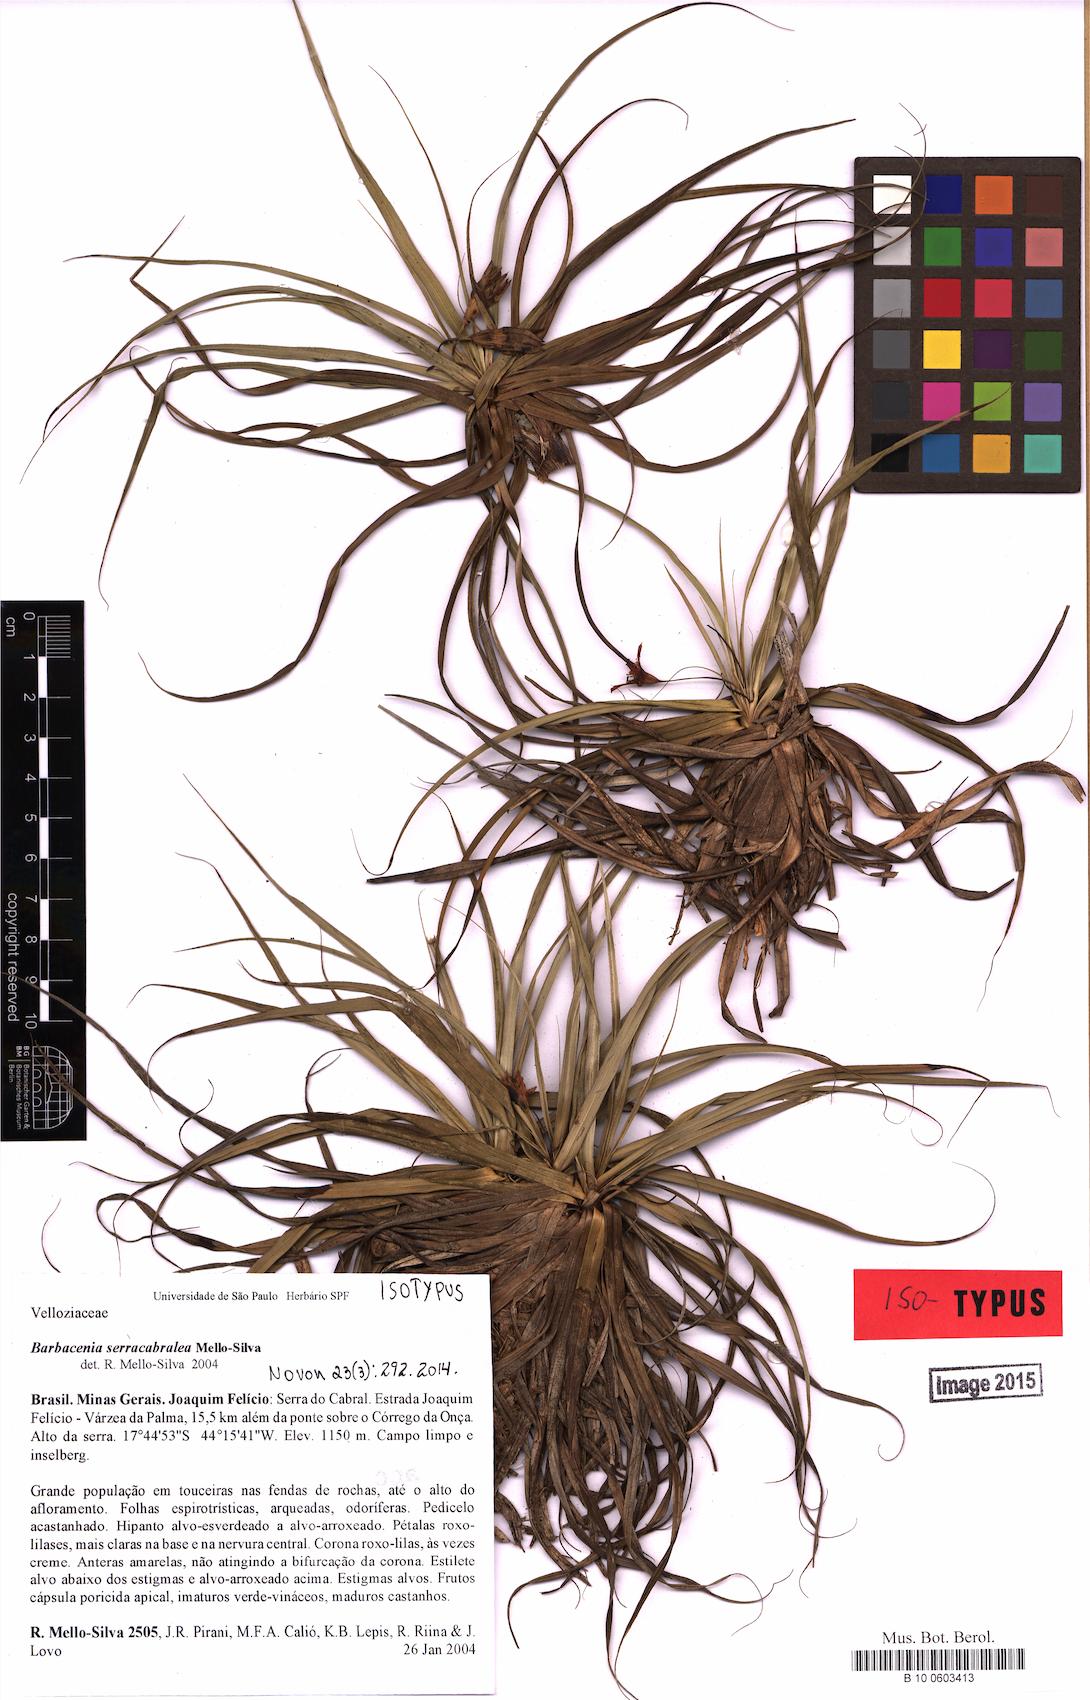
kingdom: Plantae
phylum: Tracheophyta
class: Liliopsida
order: Pandanales
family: Velloziaceae
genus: Barbacenia
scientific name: Barbacenia serracabralea
